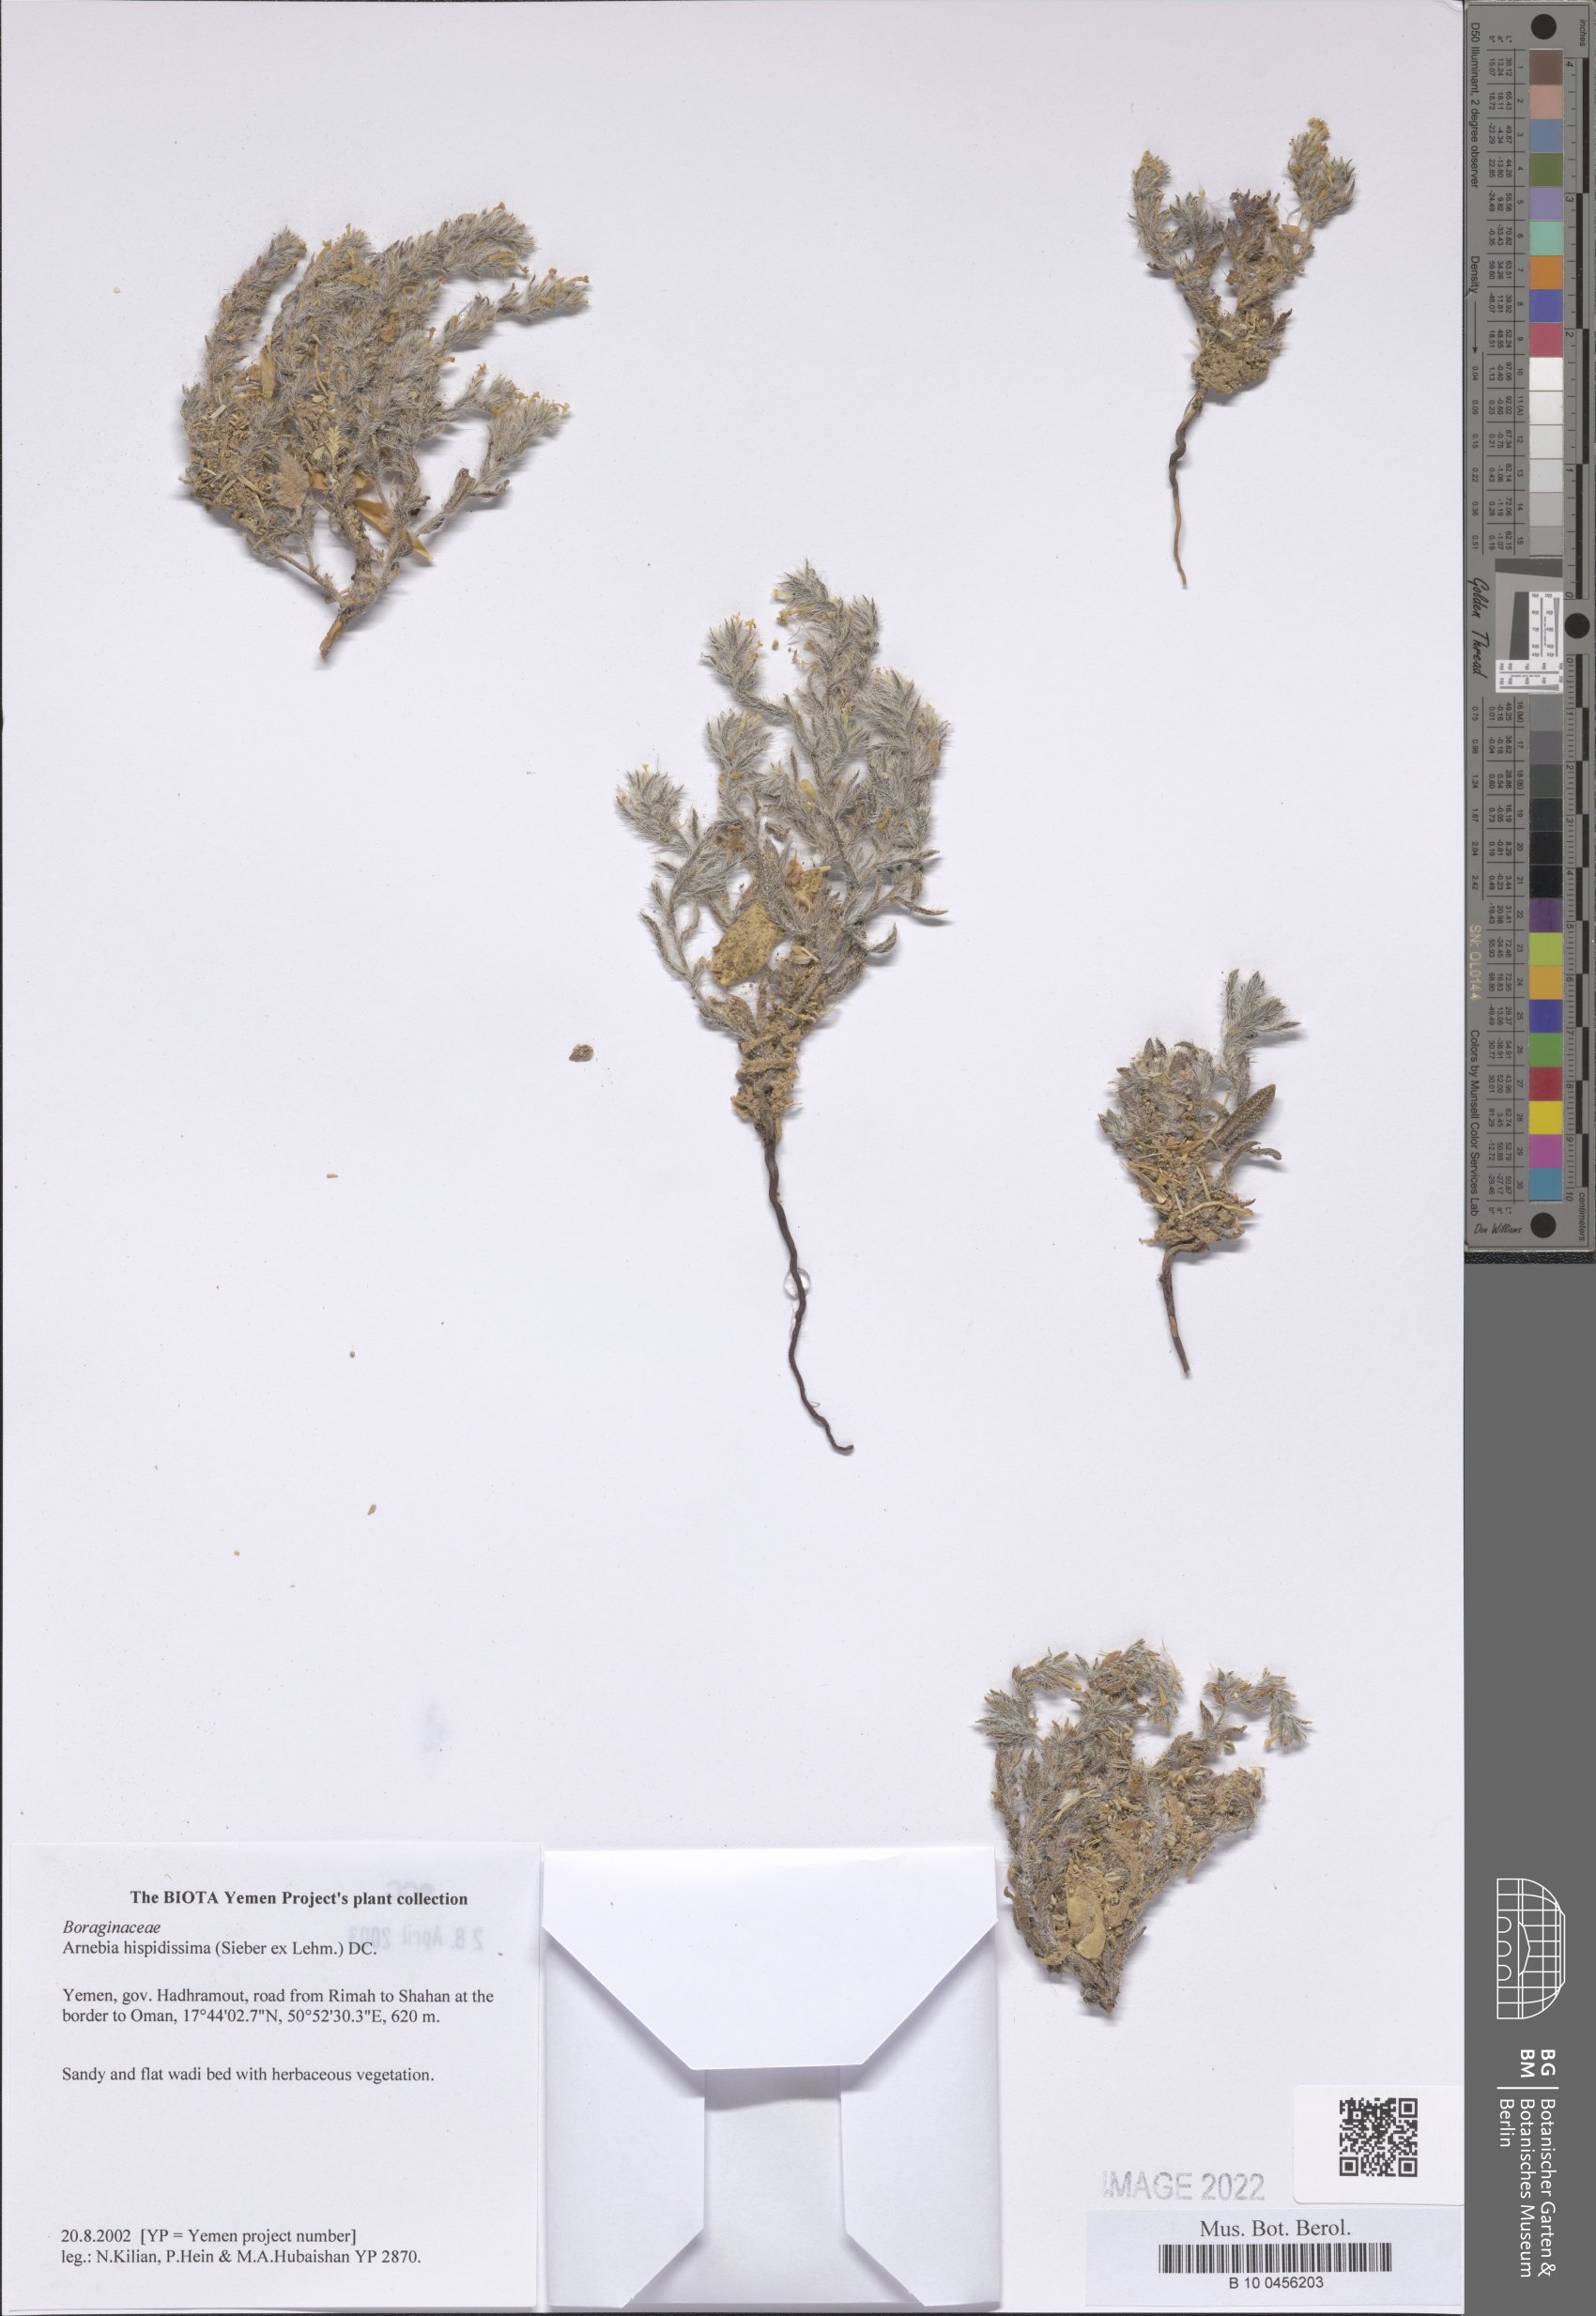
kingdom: Plantae
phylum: Tracheophyta
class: Magnoliopsida
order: Boraginales
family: Boraginaceae
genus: Arnebia
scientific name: Arnebia hispidissima
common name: Arabian-primrose
